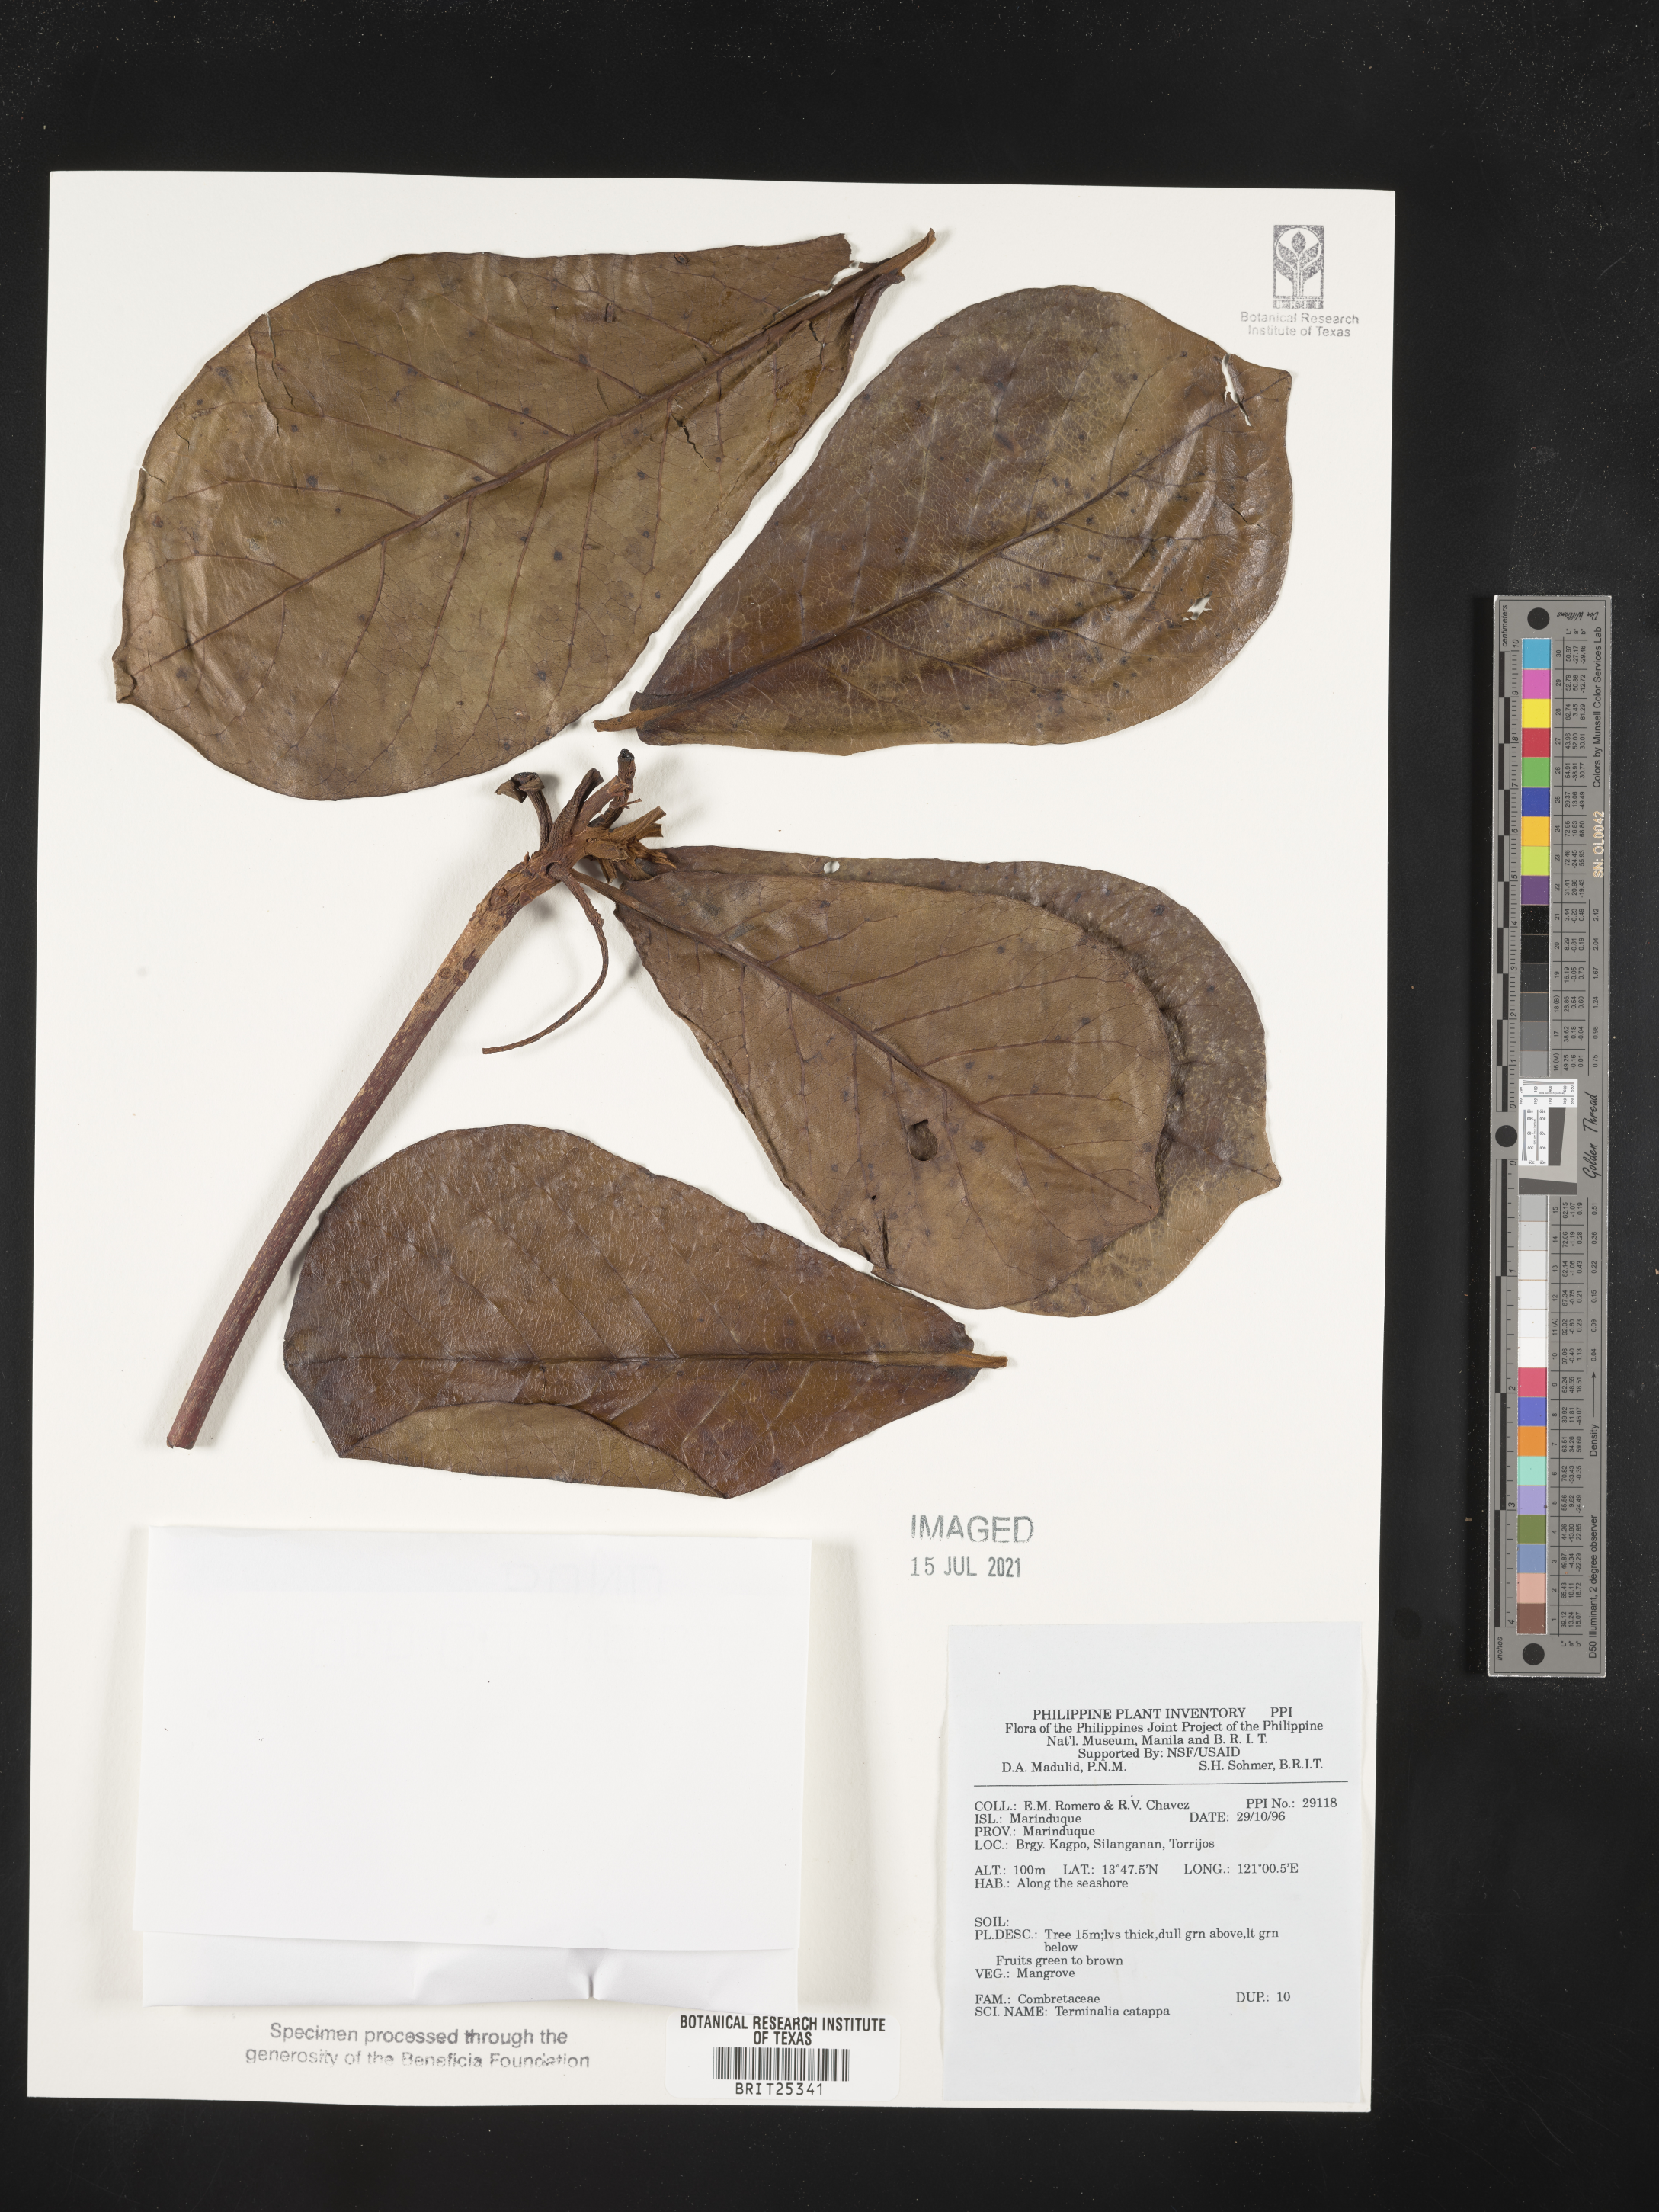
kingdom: Plantae
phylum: Tracheophyta
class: Magnoliopsida
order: Myrtales
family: Combretaceae
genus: Terminalia
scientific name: Terminalia catappa
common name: Tropical almond
